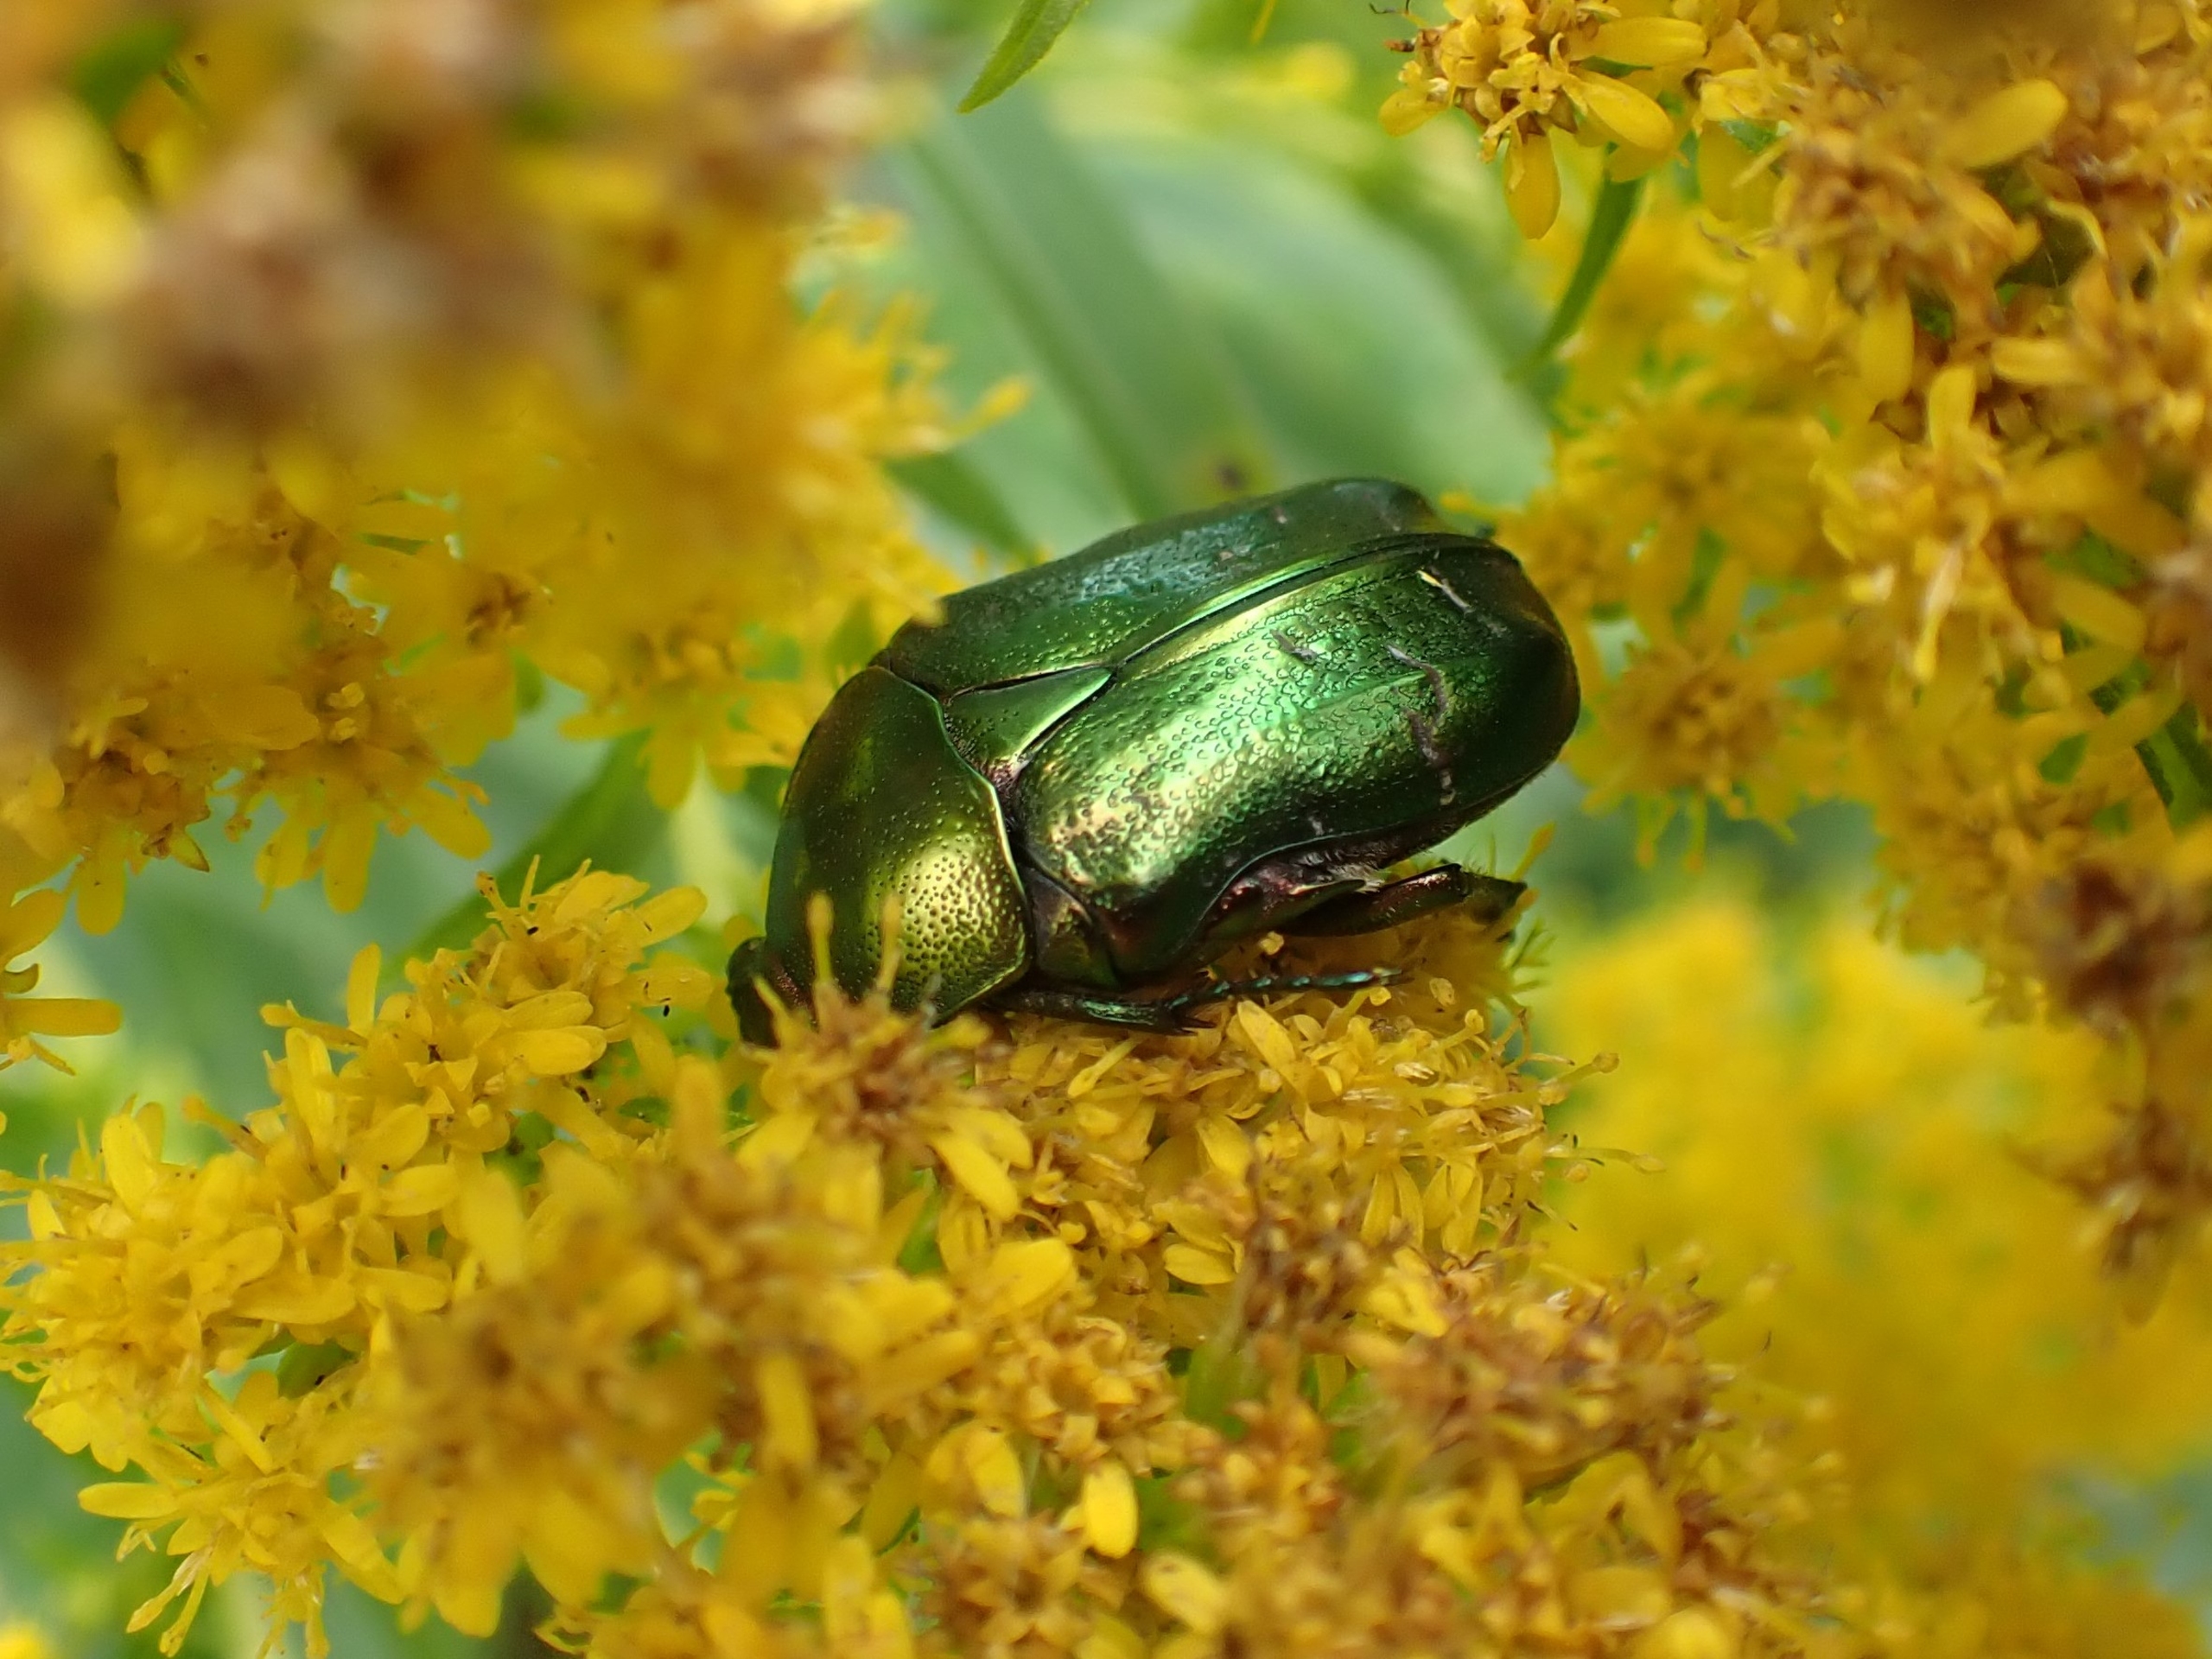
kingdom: Animalia
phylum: Arthropoda
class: Insecta
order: Coleoptera
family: Scarabaeidae
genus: Cetonia
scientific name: Cetonia aurata
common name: Grøn guldbasse
